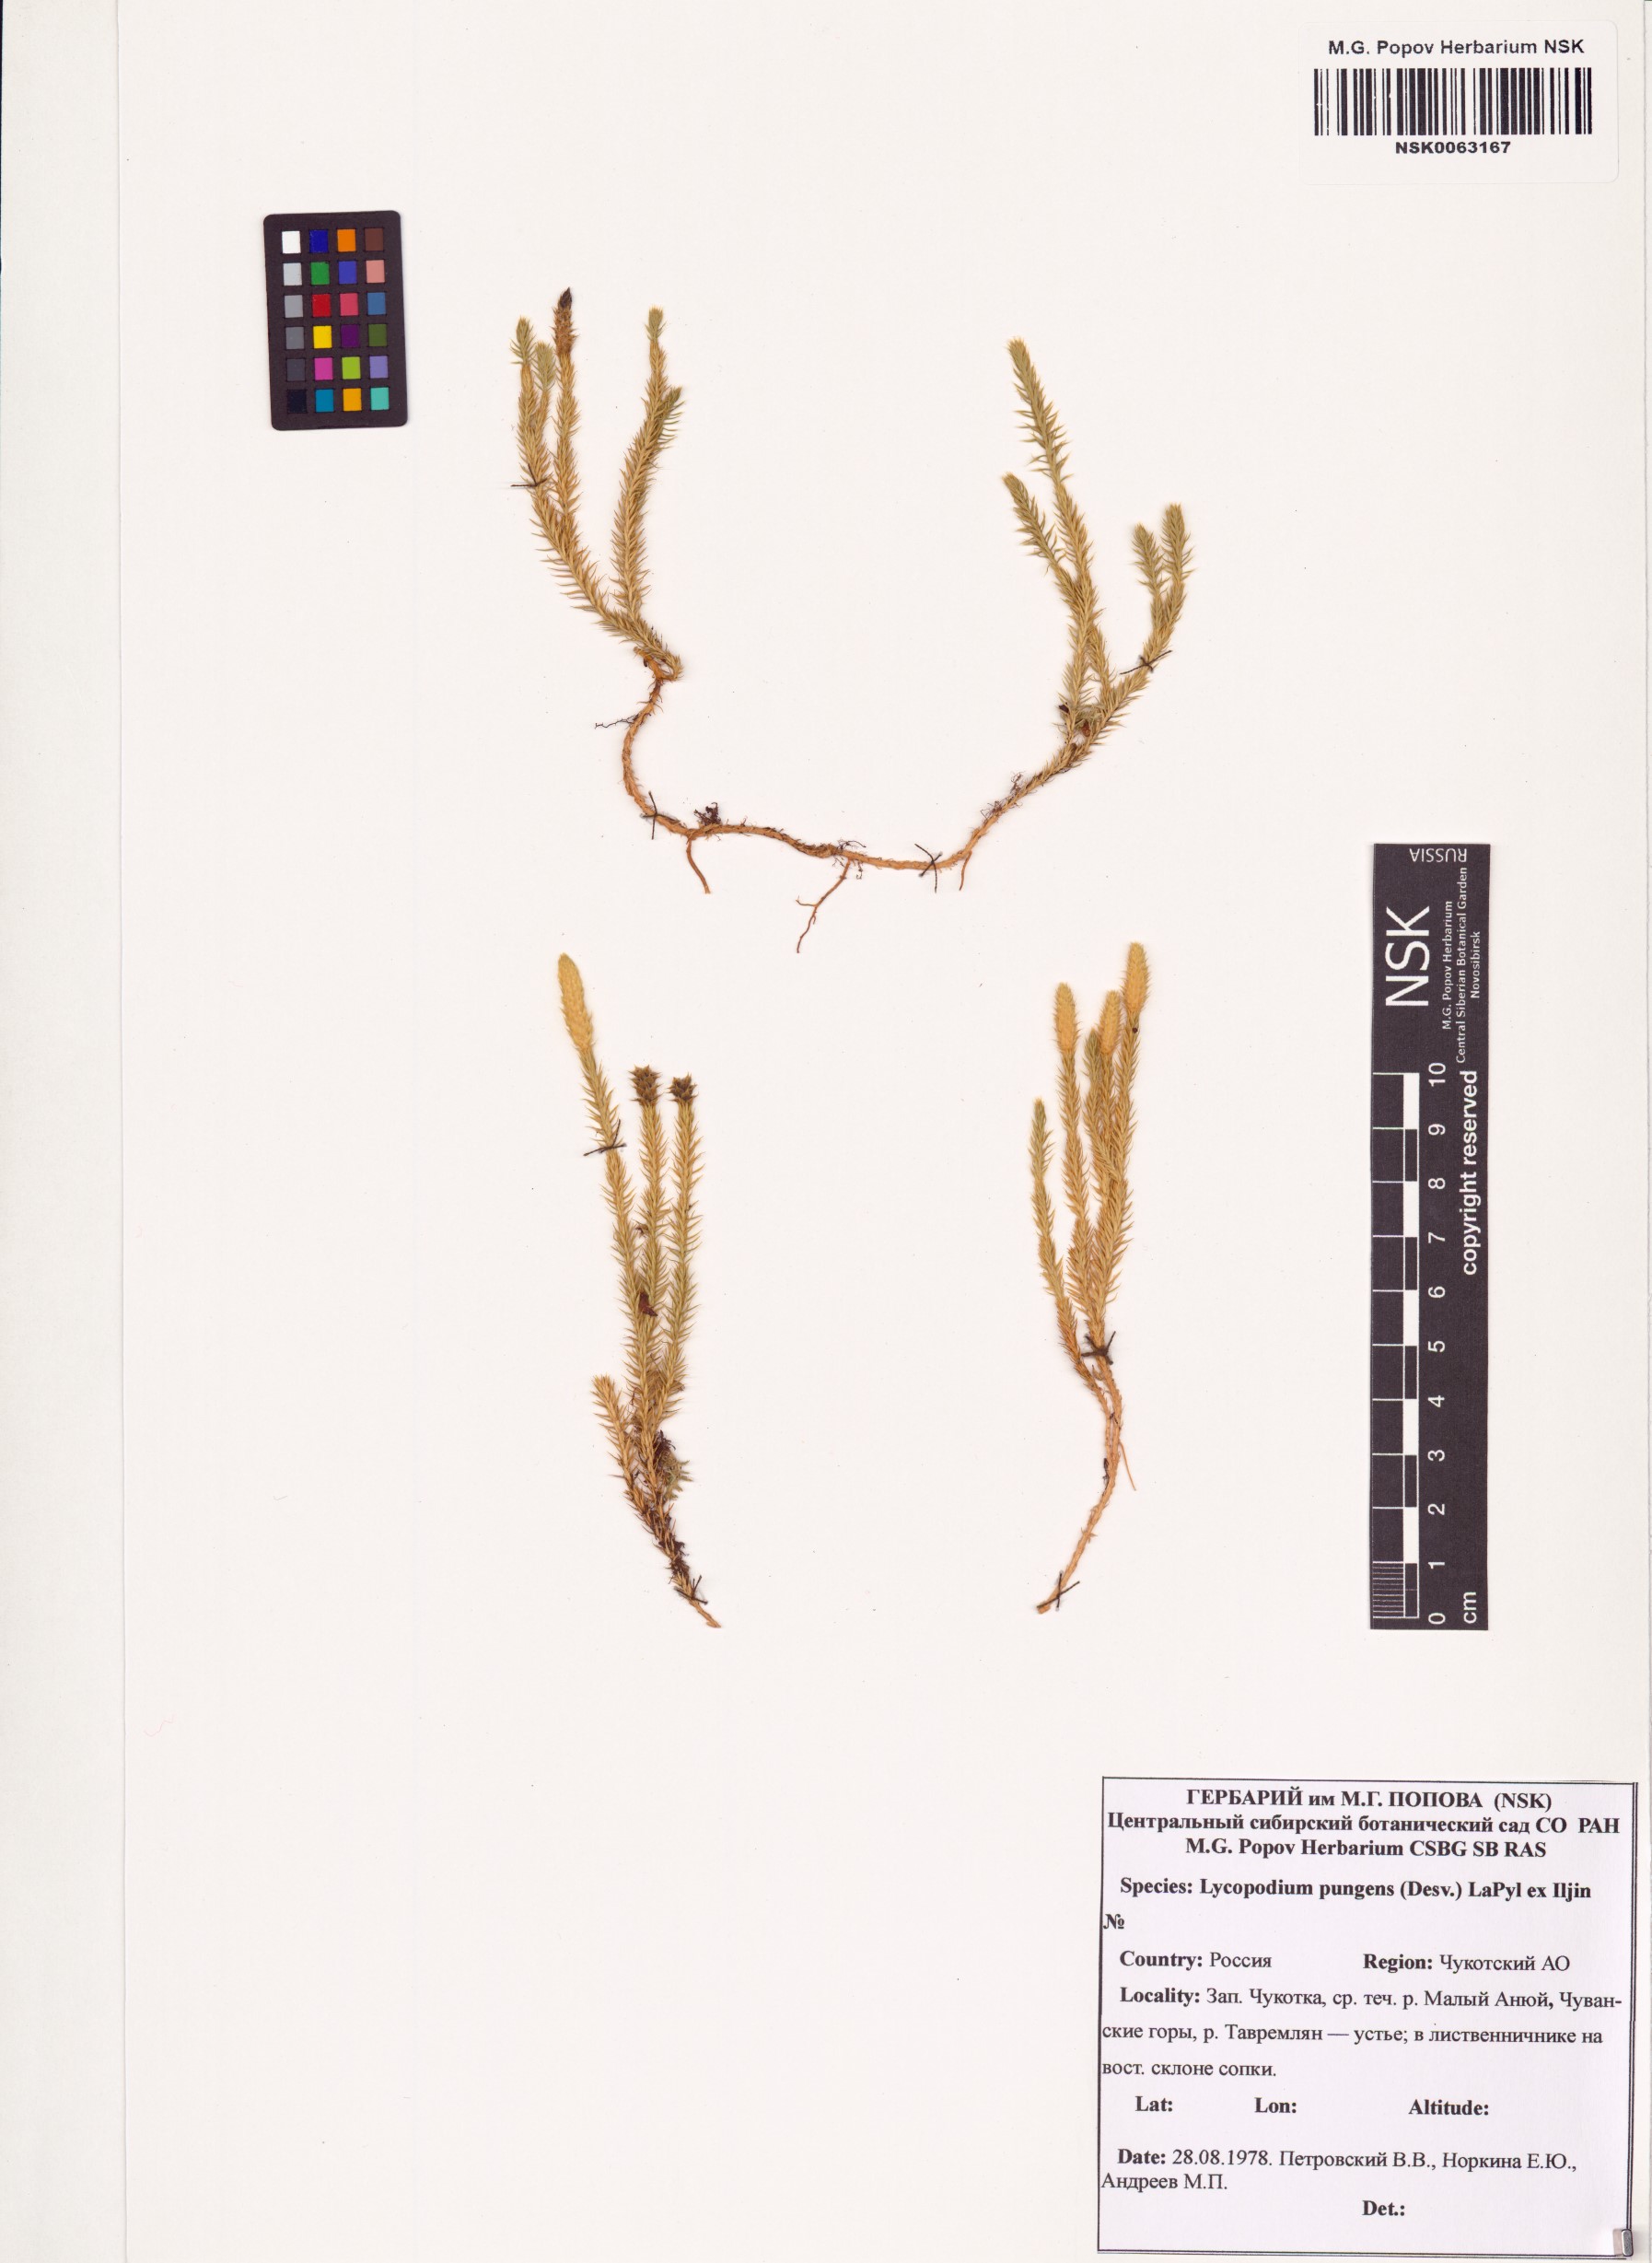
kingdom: Plantae
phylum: Tracheophyta
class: Lycopodiopsida
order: Lycopodiales
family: Lycopodiaceae
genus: Spinulum
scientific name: Spinulum annotinum
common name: Interrupted club-moss
